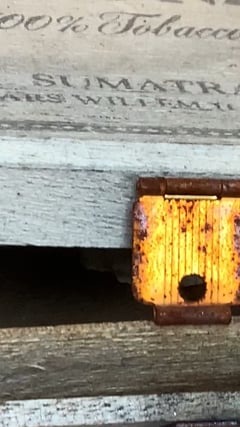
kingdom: Animalia
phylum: Arthropoda
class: Insecta
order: Hymenoptera
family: Eumenidae
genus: Polistes
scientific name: Polistes dominula
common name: Paper wasp
